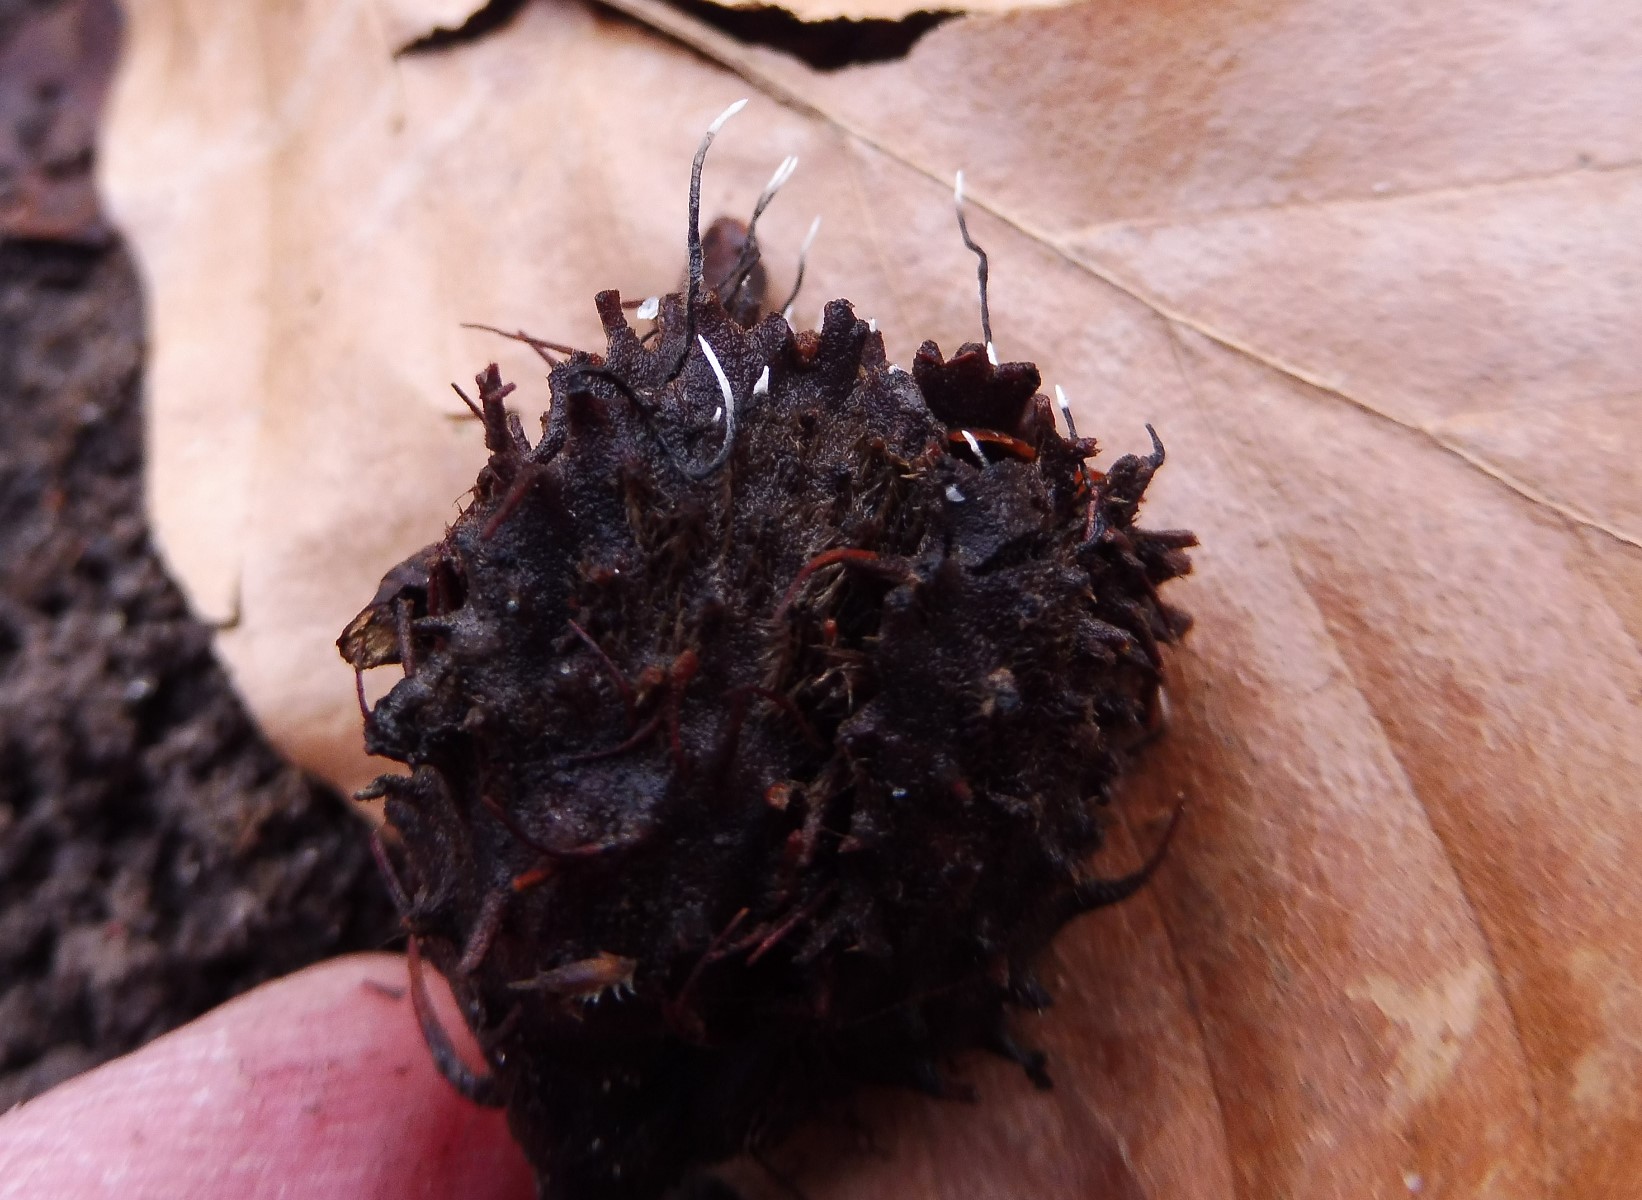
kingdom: Fungi
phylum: Ascomycota
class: Sordariomycetes
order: Xylariales
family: Xylariaceae
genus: Xylaria
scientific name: Xylaria carpophila
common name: bogskål-stødsvamp
